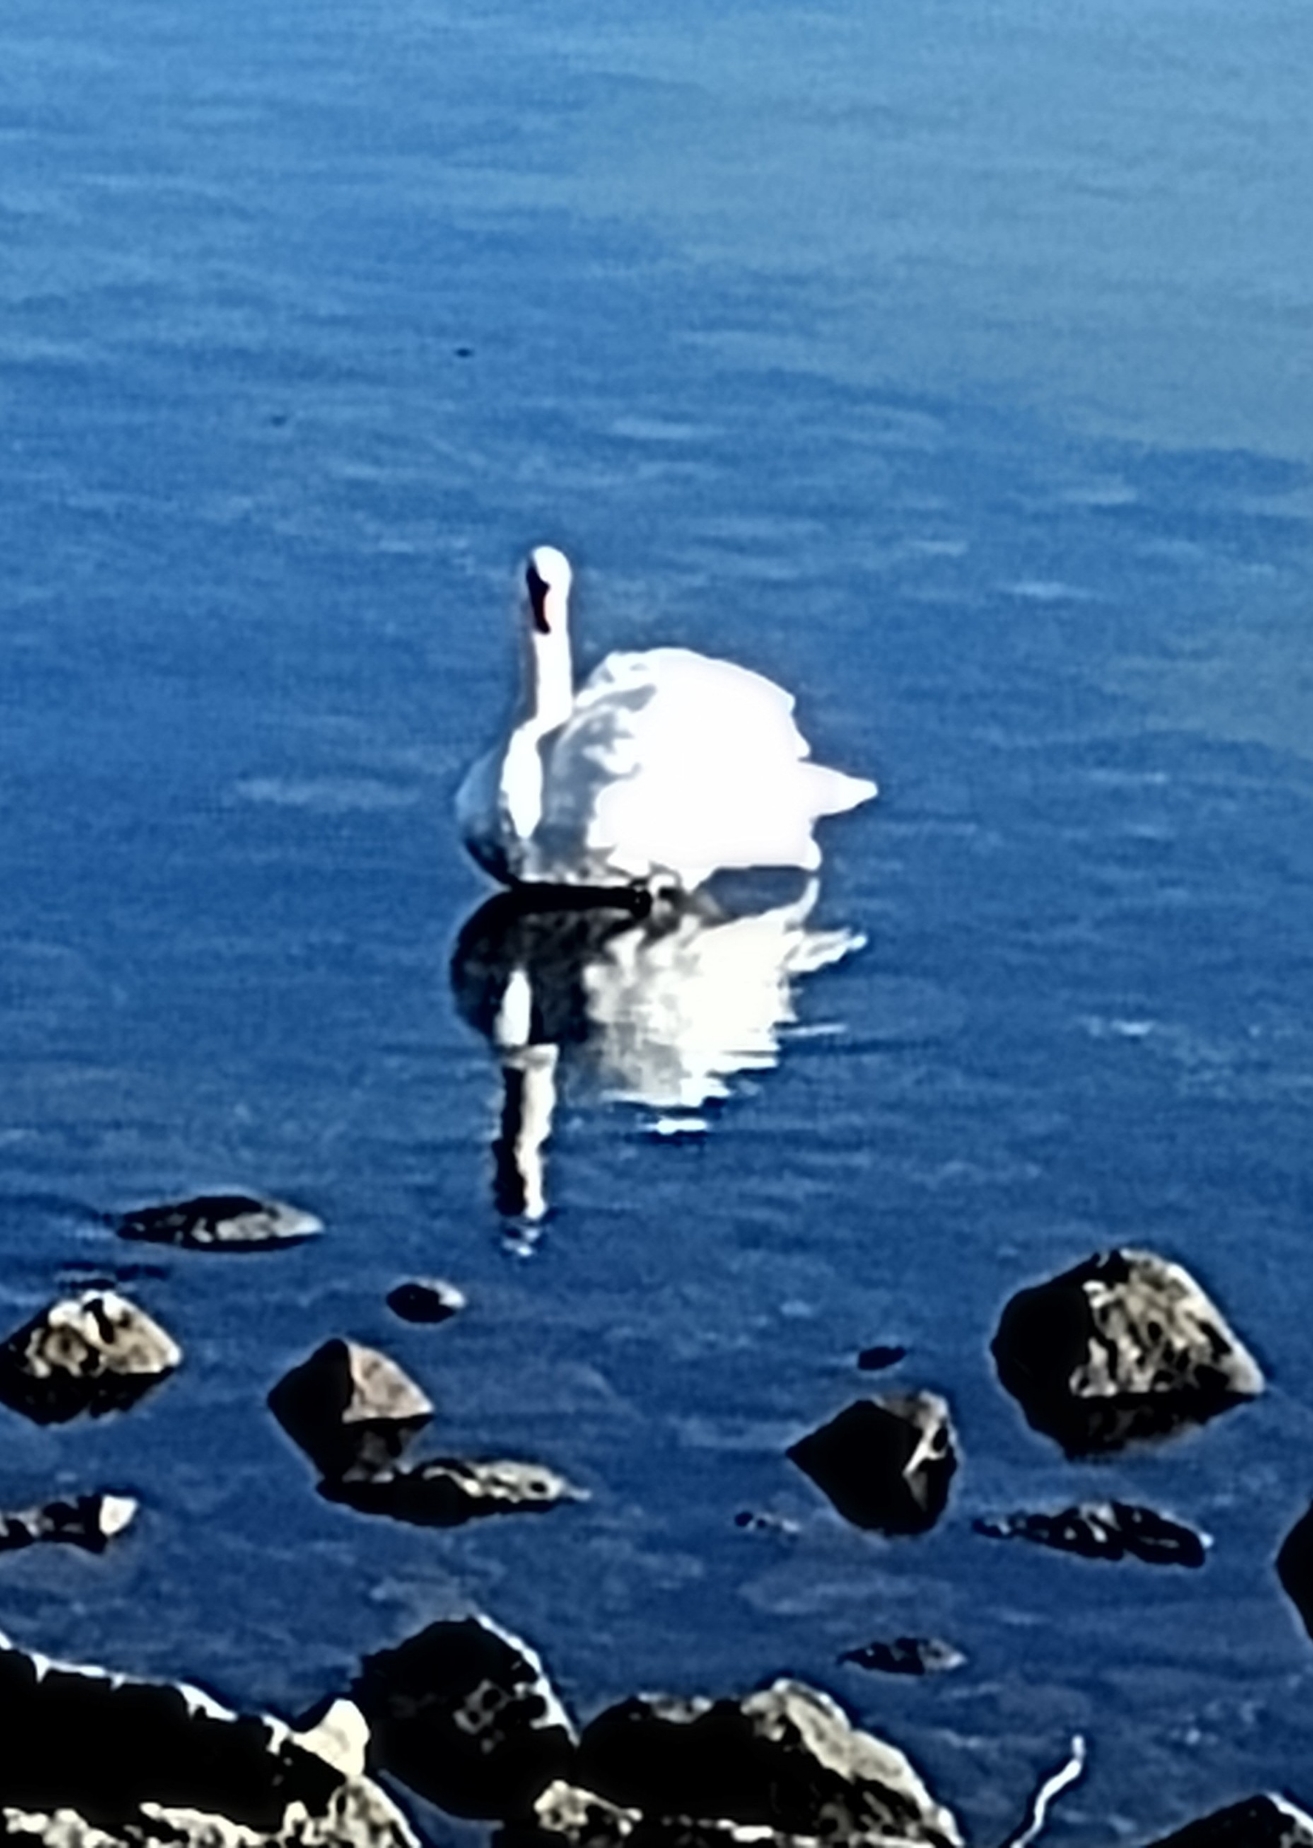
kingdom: Animalia
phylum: Chordata
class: Aves
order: Anseriformes
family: Anatidae
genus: Cygnus
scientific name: Cygnus olor
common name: Knopsvane
